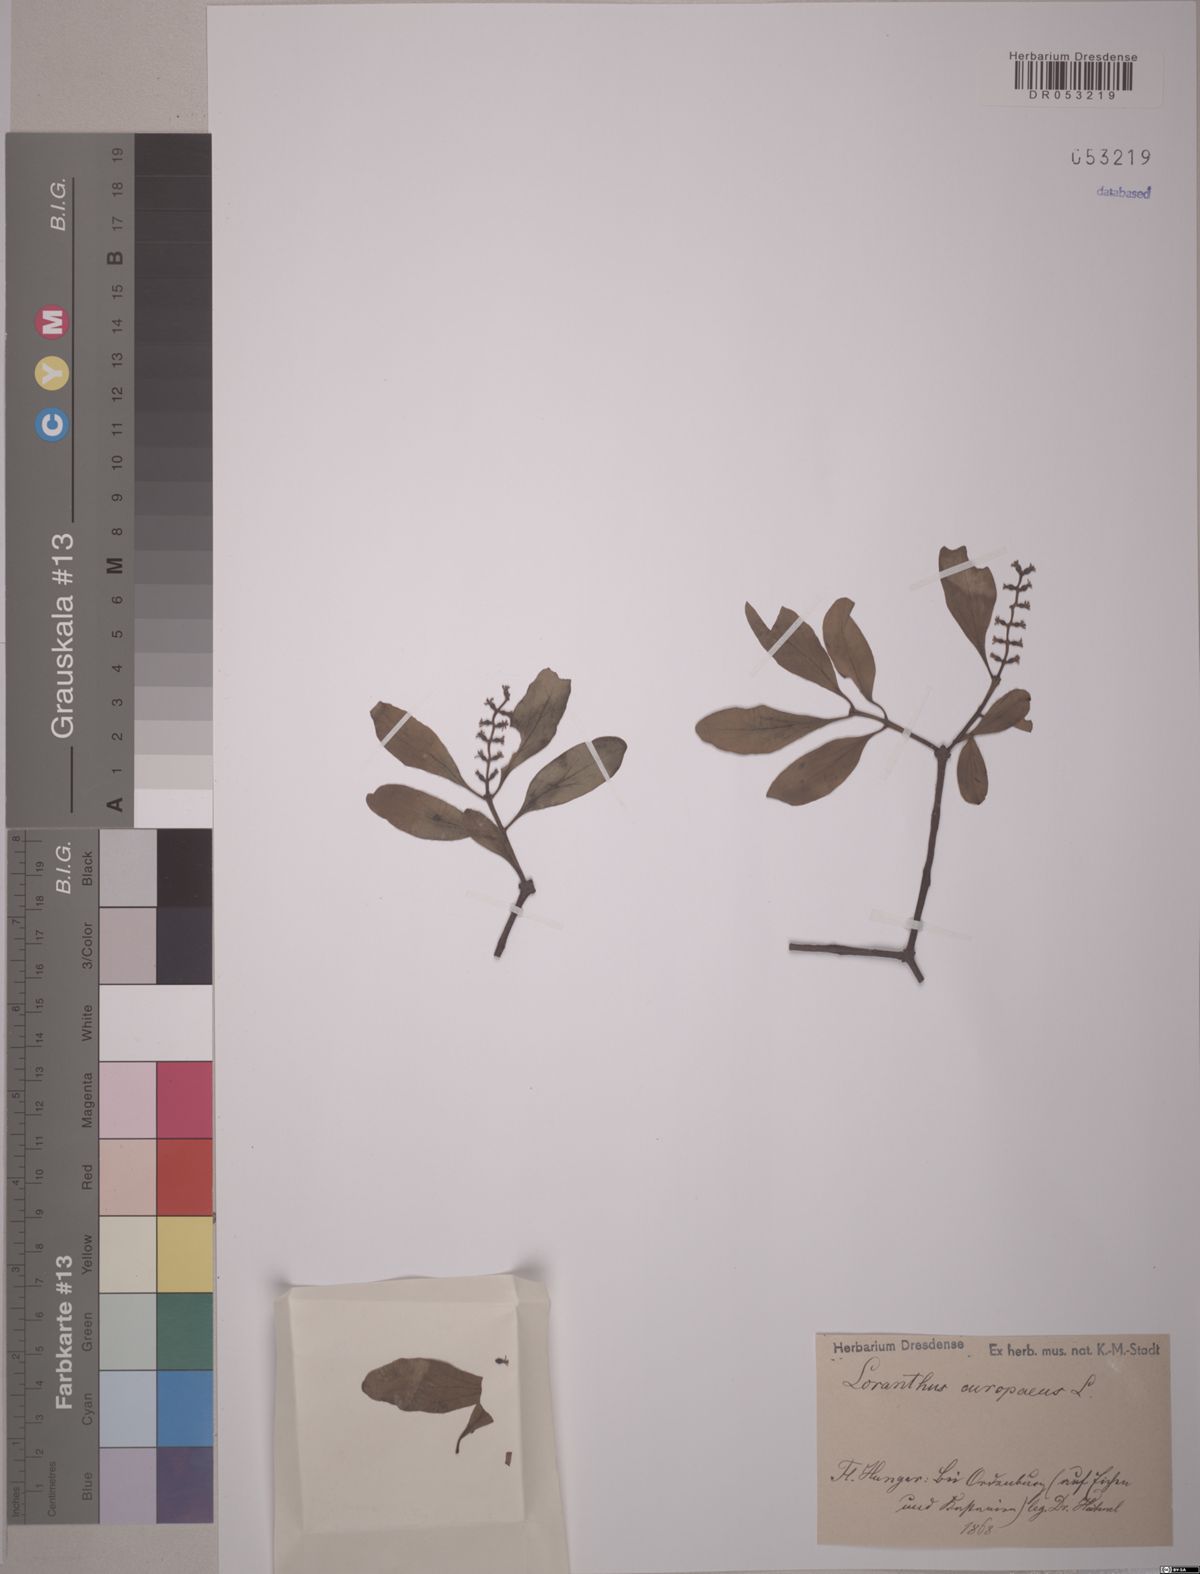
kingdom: Plantae
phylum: Tracheophyta
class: Magnoliopsida
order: Santalales
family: Loranthaceae
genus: Loranthus
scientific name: Loranthus europaeus
